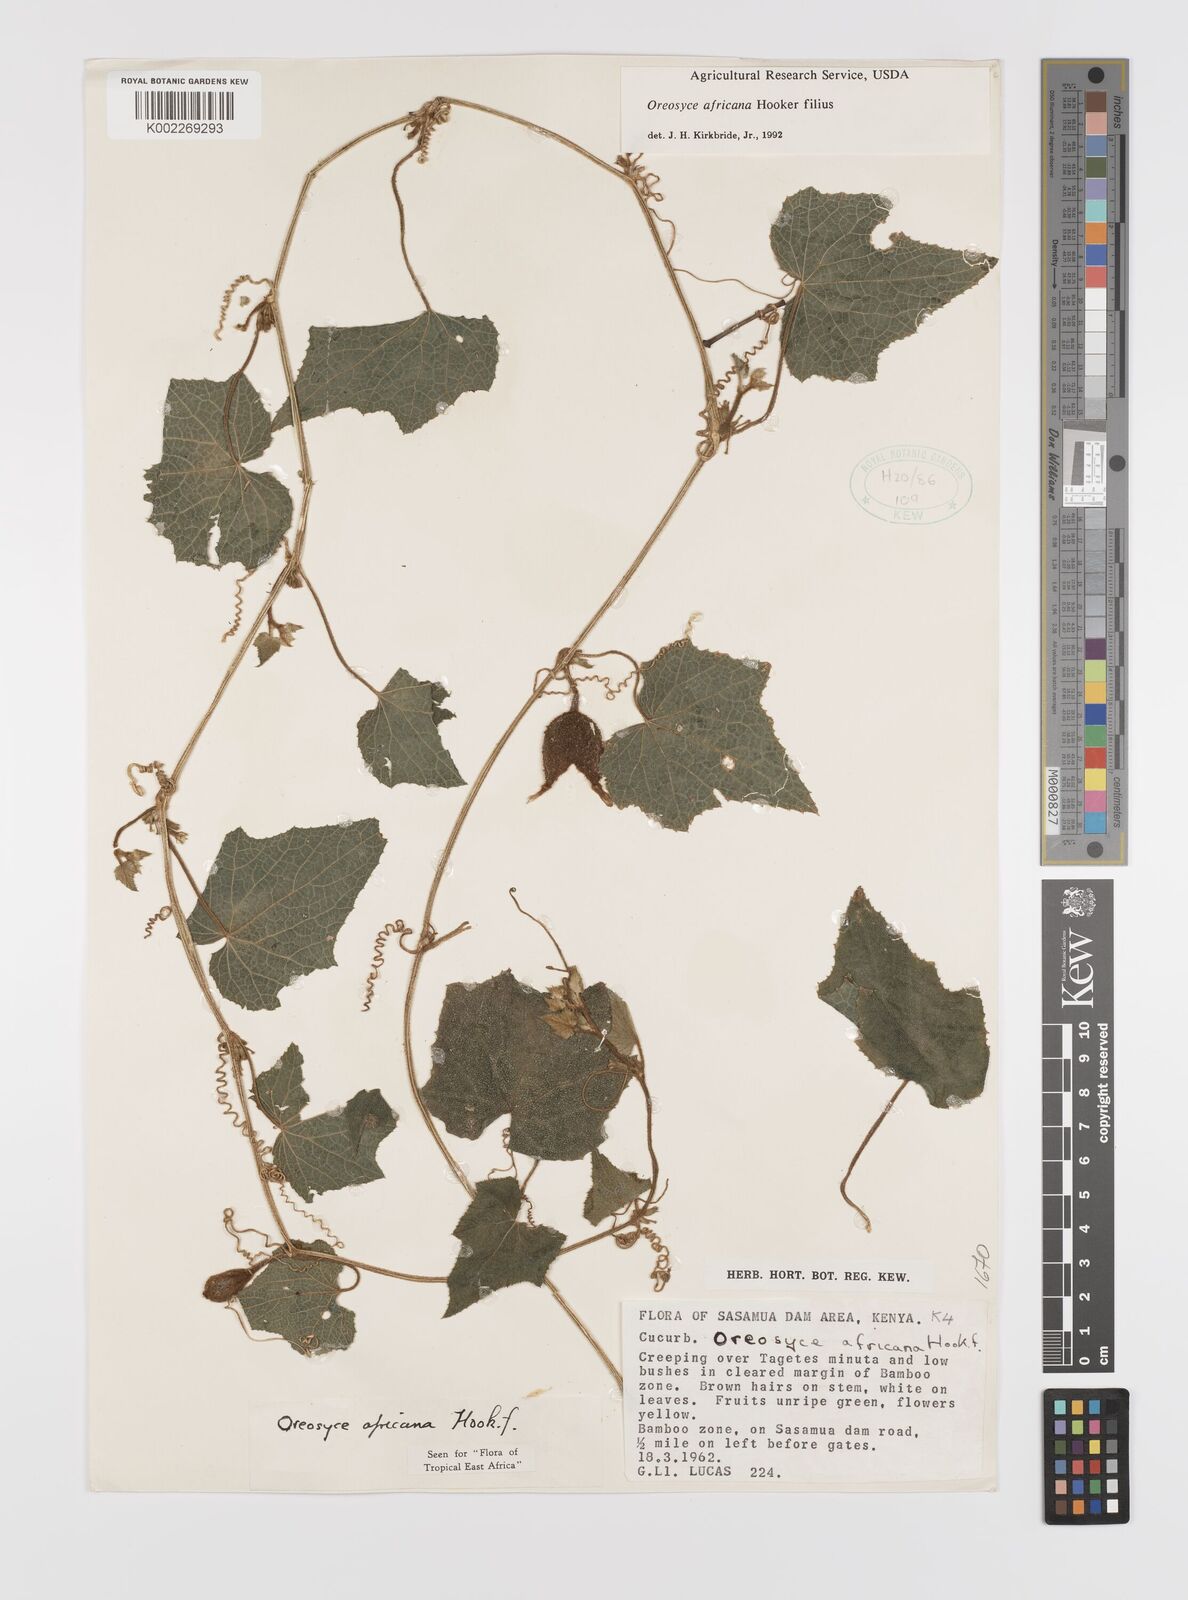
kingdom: Plantae
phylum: Tracheophyta
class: Magnoliopsida
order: Cucurbitales
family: Cucurbitaceae
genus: Cucumis
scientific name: Cucumis oreosyce
